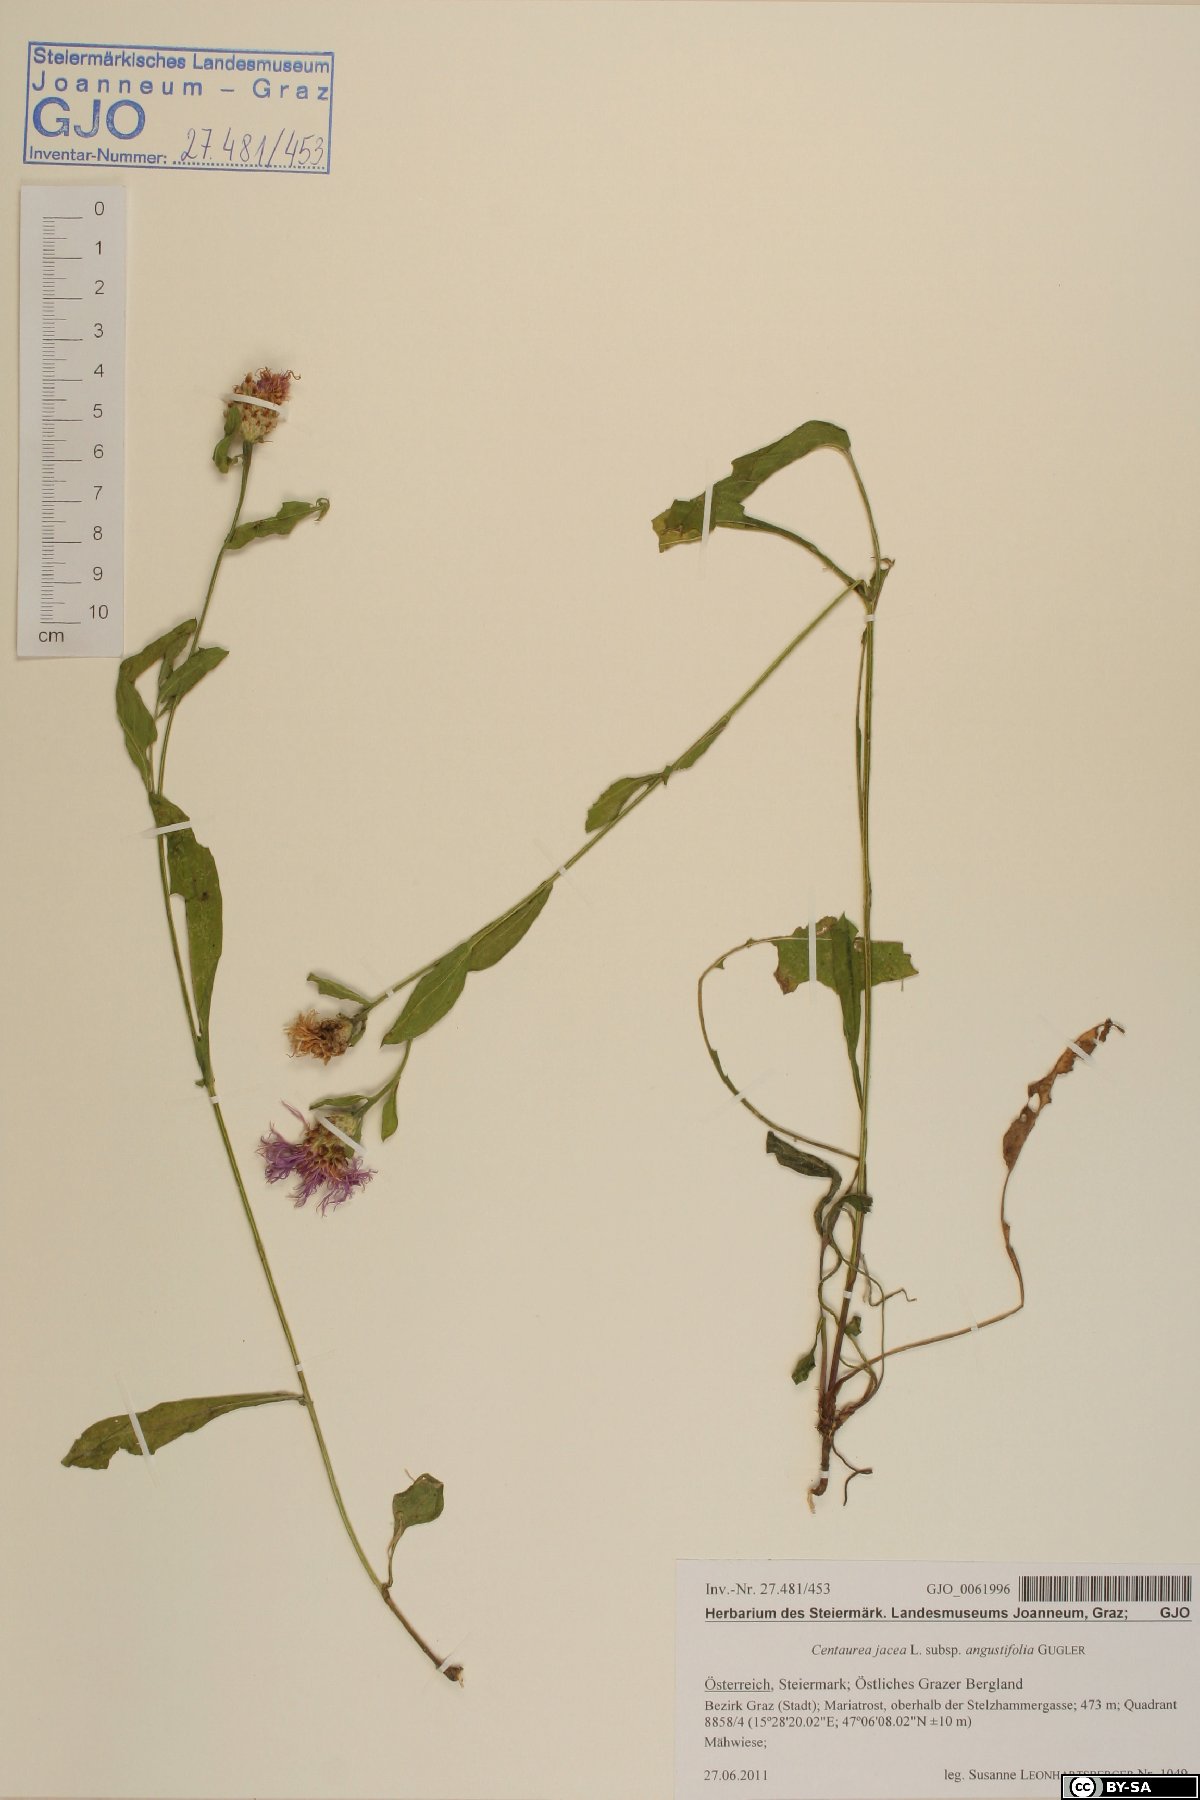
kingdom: Plantae
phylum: Tracheophyta
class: Magnoliopsida
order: Asterales
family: Asteraceae
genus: Centaurea
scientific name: Centaurea pannonica
